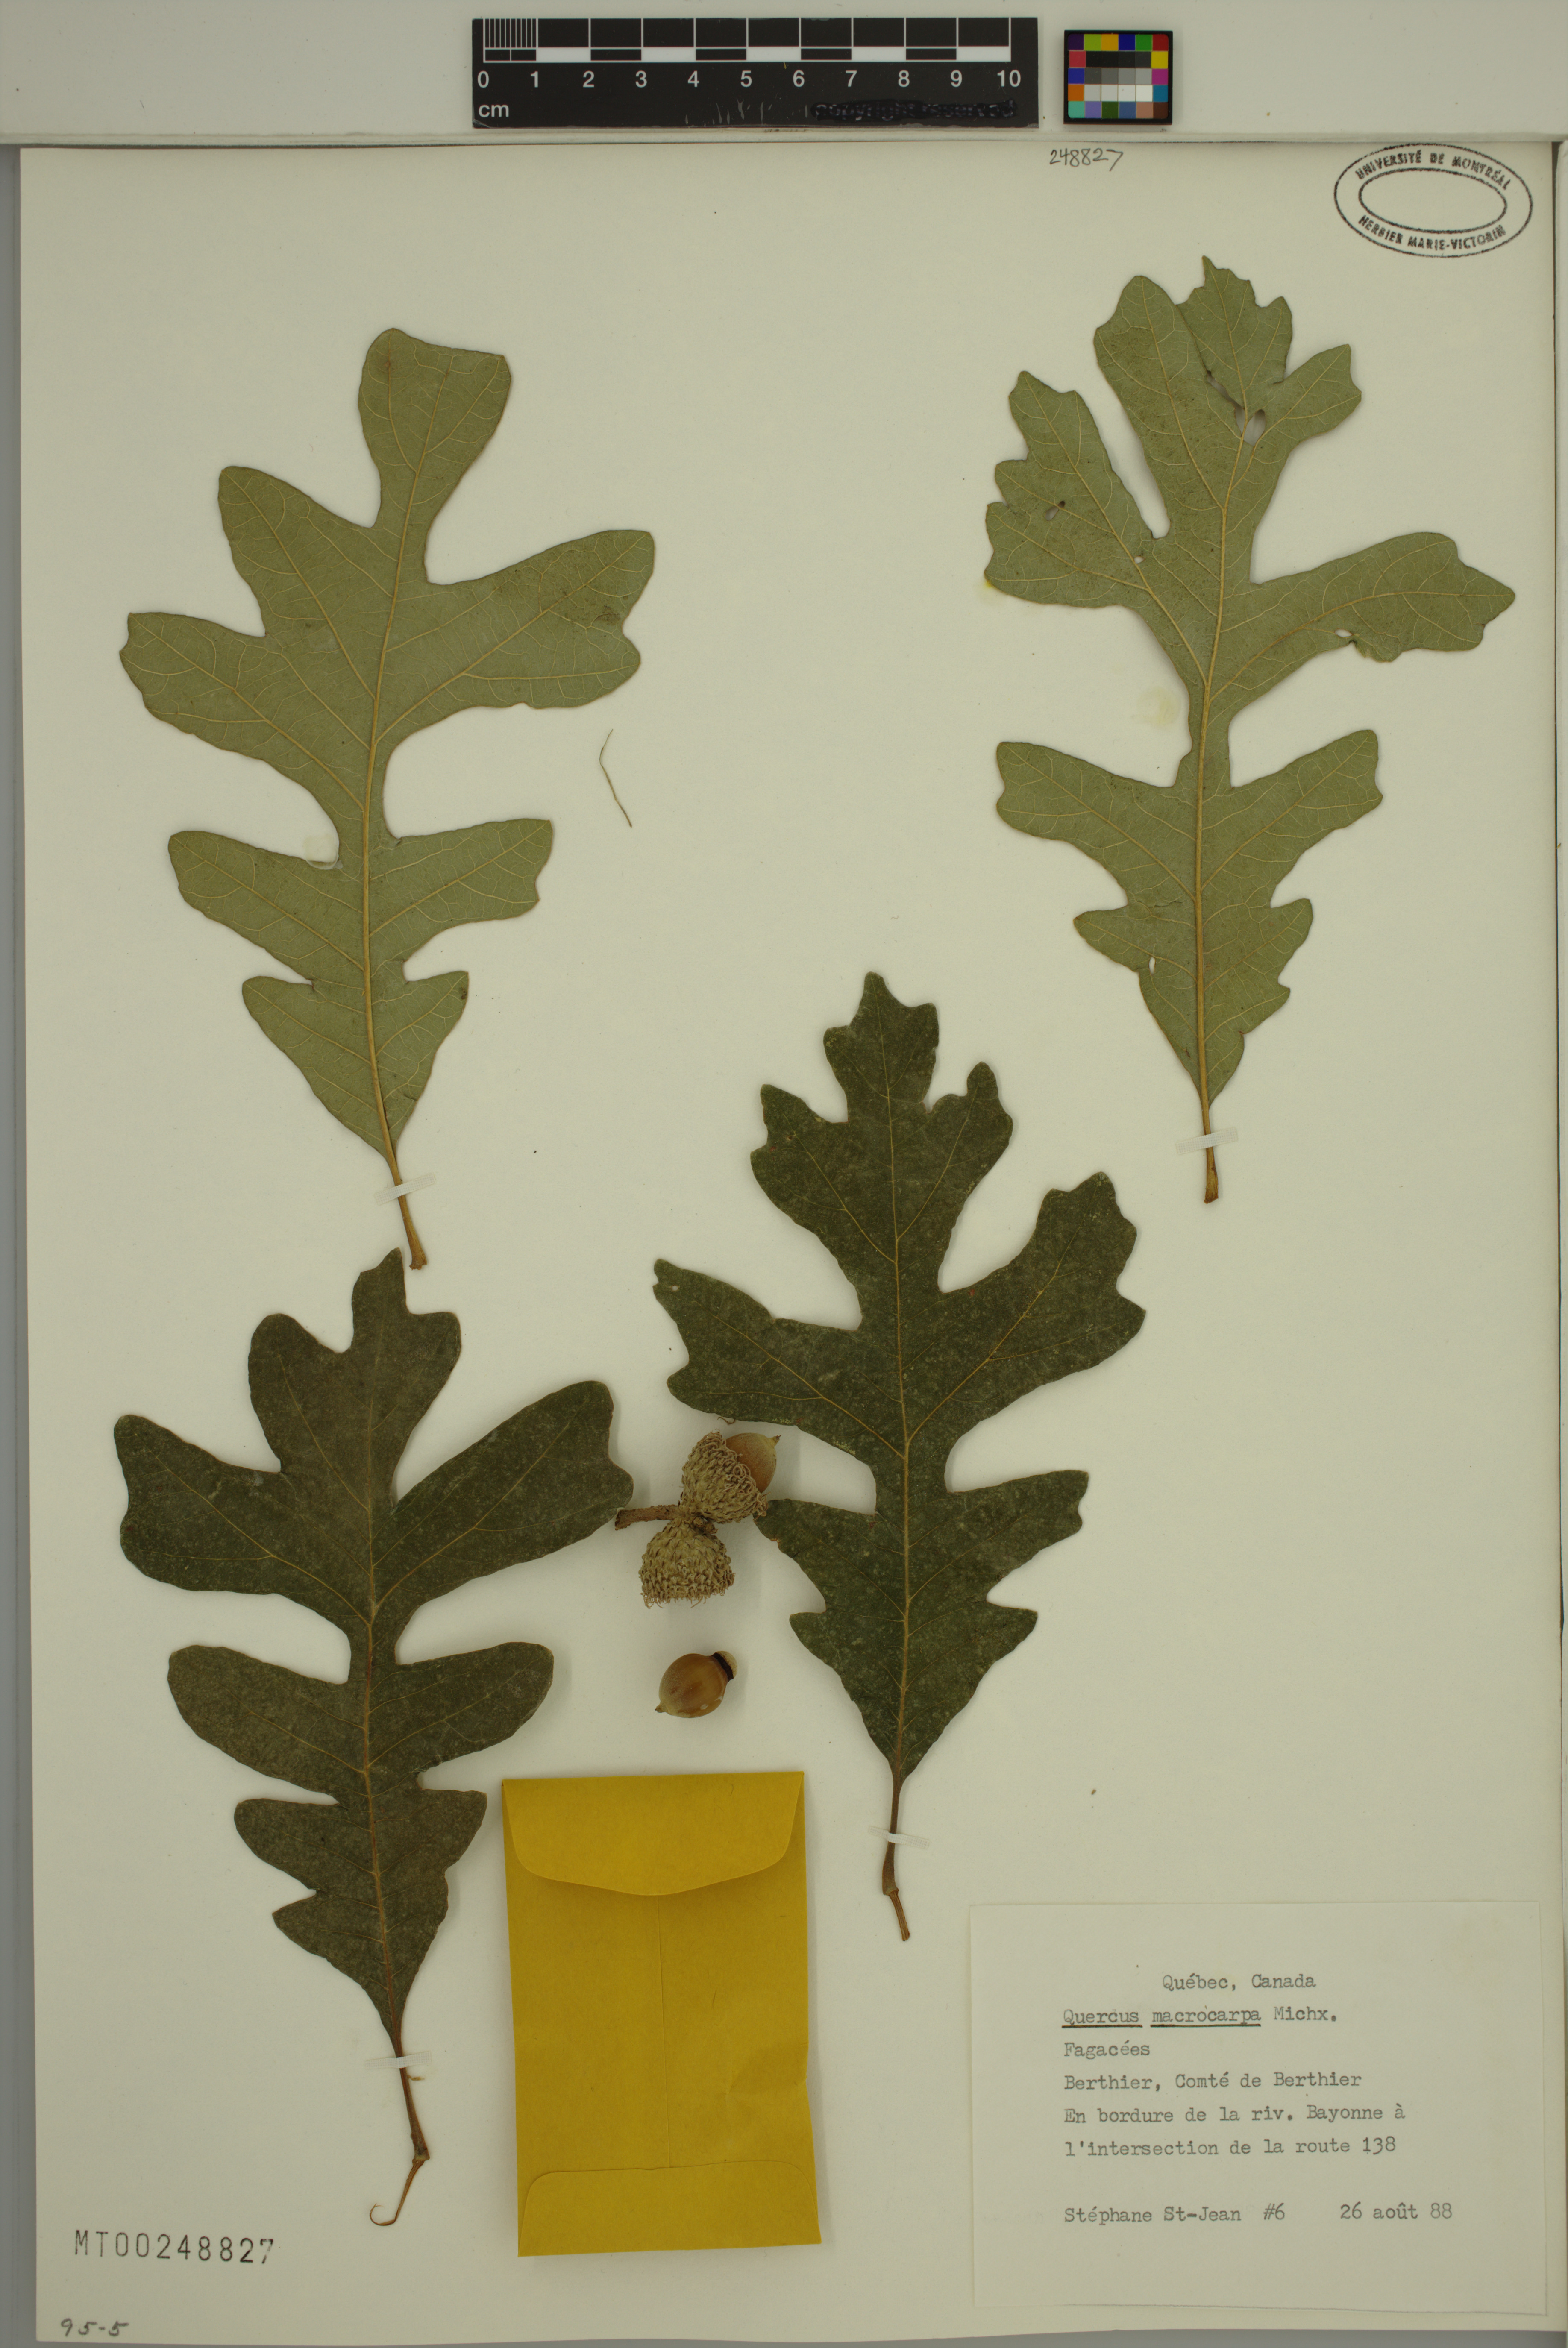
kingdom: Plantae
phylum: Tracheophyta
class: Magnoliopsida
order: Fagales
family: Fagaceae
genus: Quercus
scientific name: Quercus macrocarpa
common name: Bur oak
